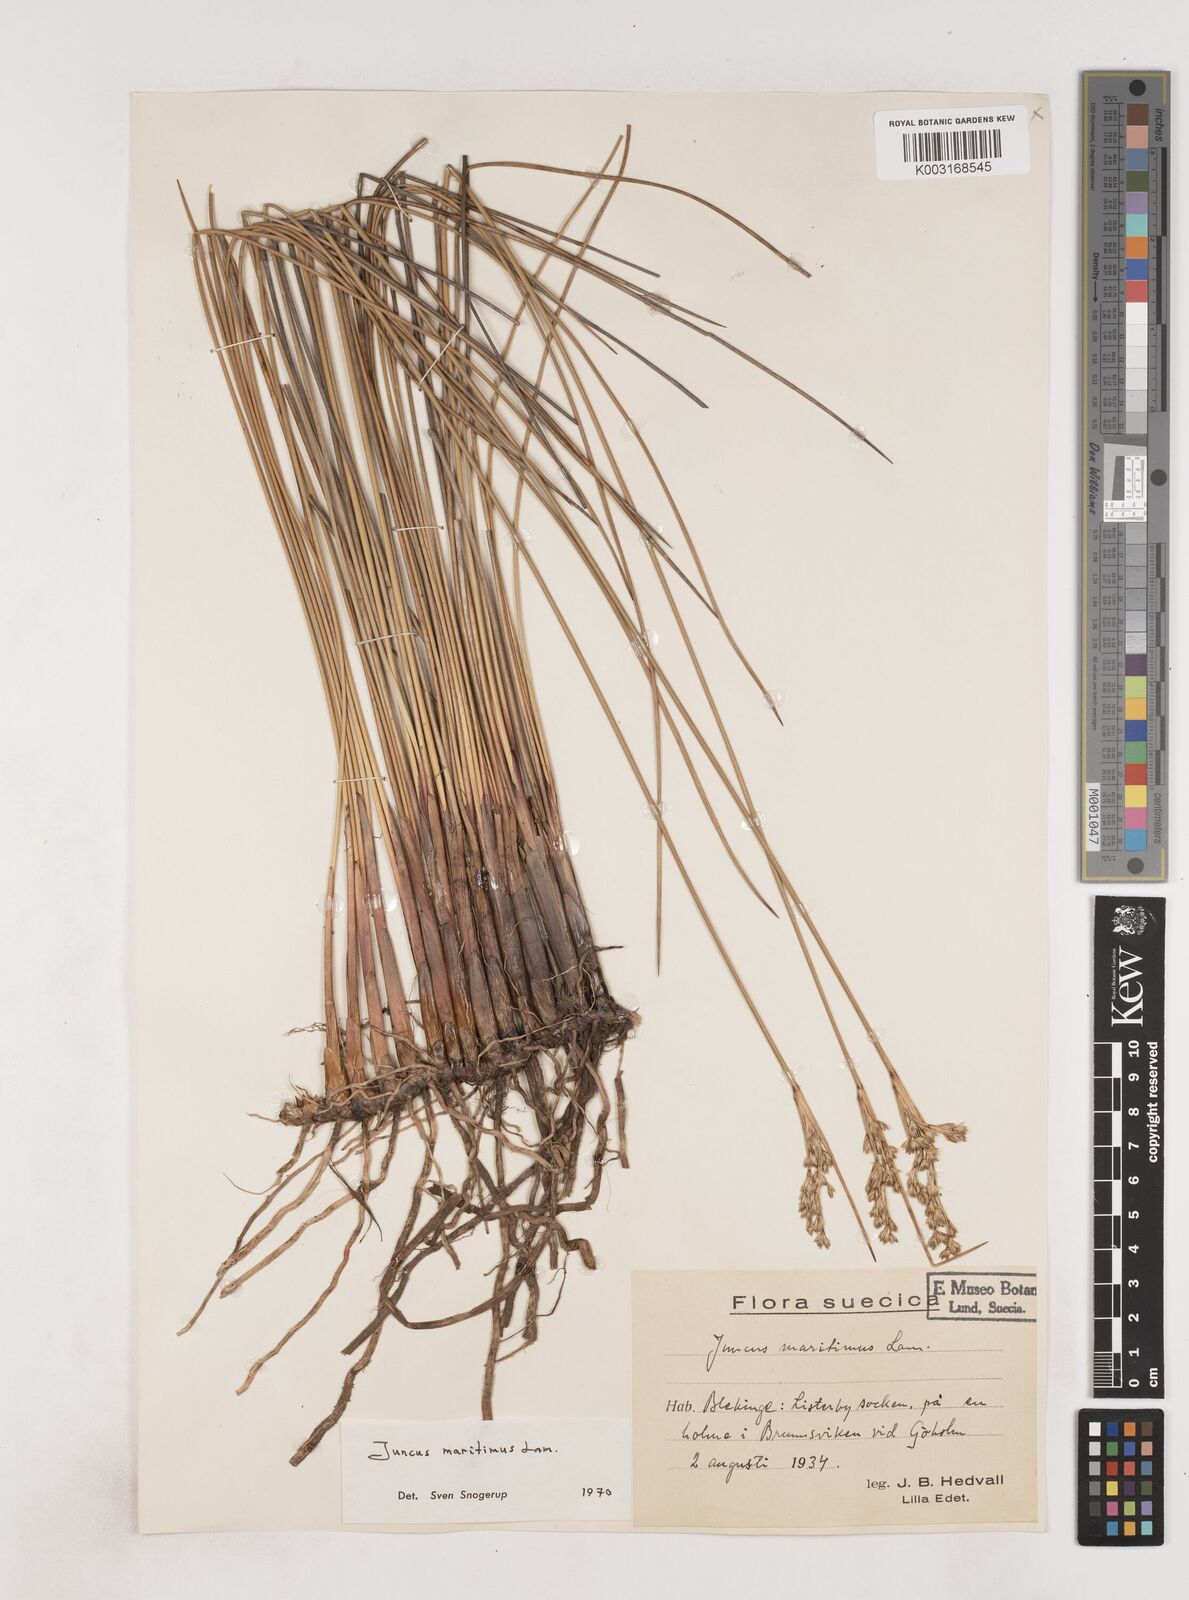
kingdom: Plantae
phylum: Tracheophyta
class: Liliopsida
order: Poales
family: Juncaceae
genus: Juncus
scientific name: Juncus maritimus
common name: Sea rush
